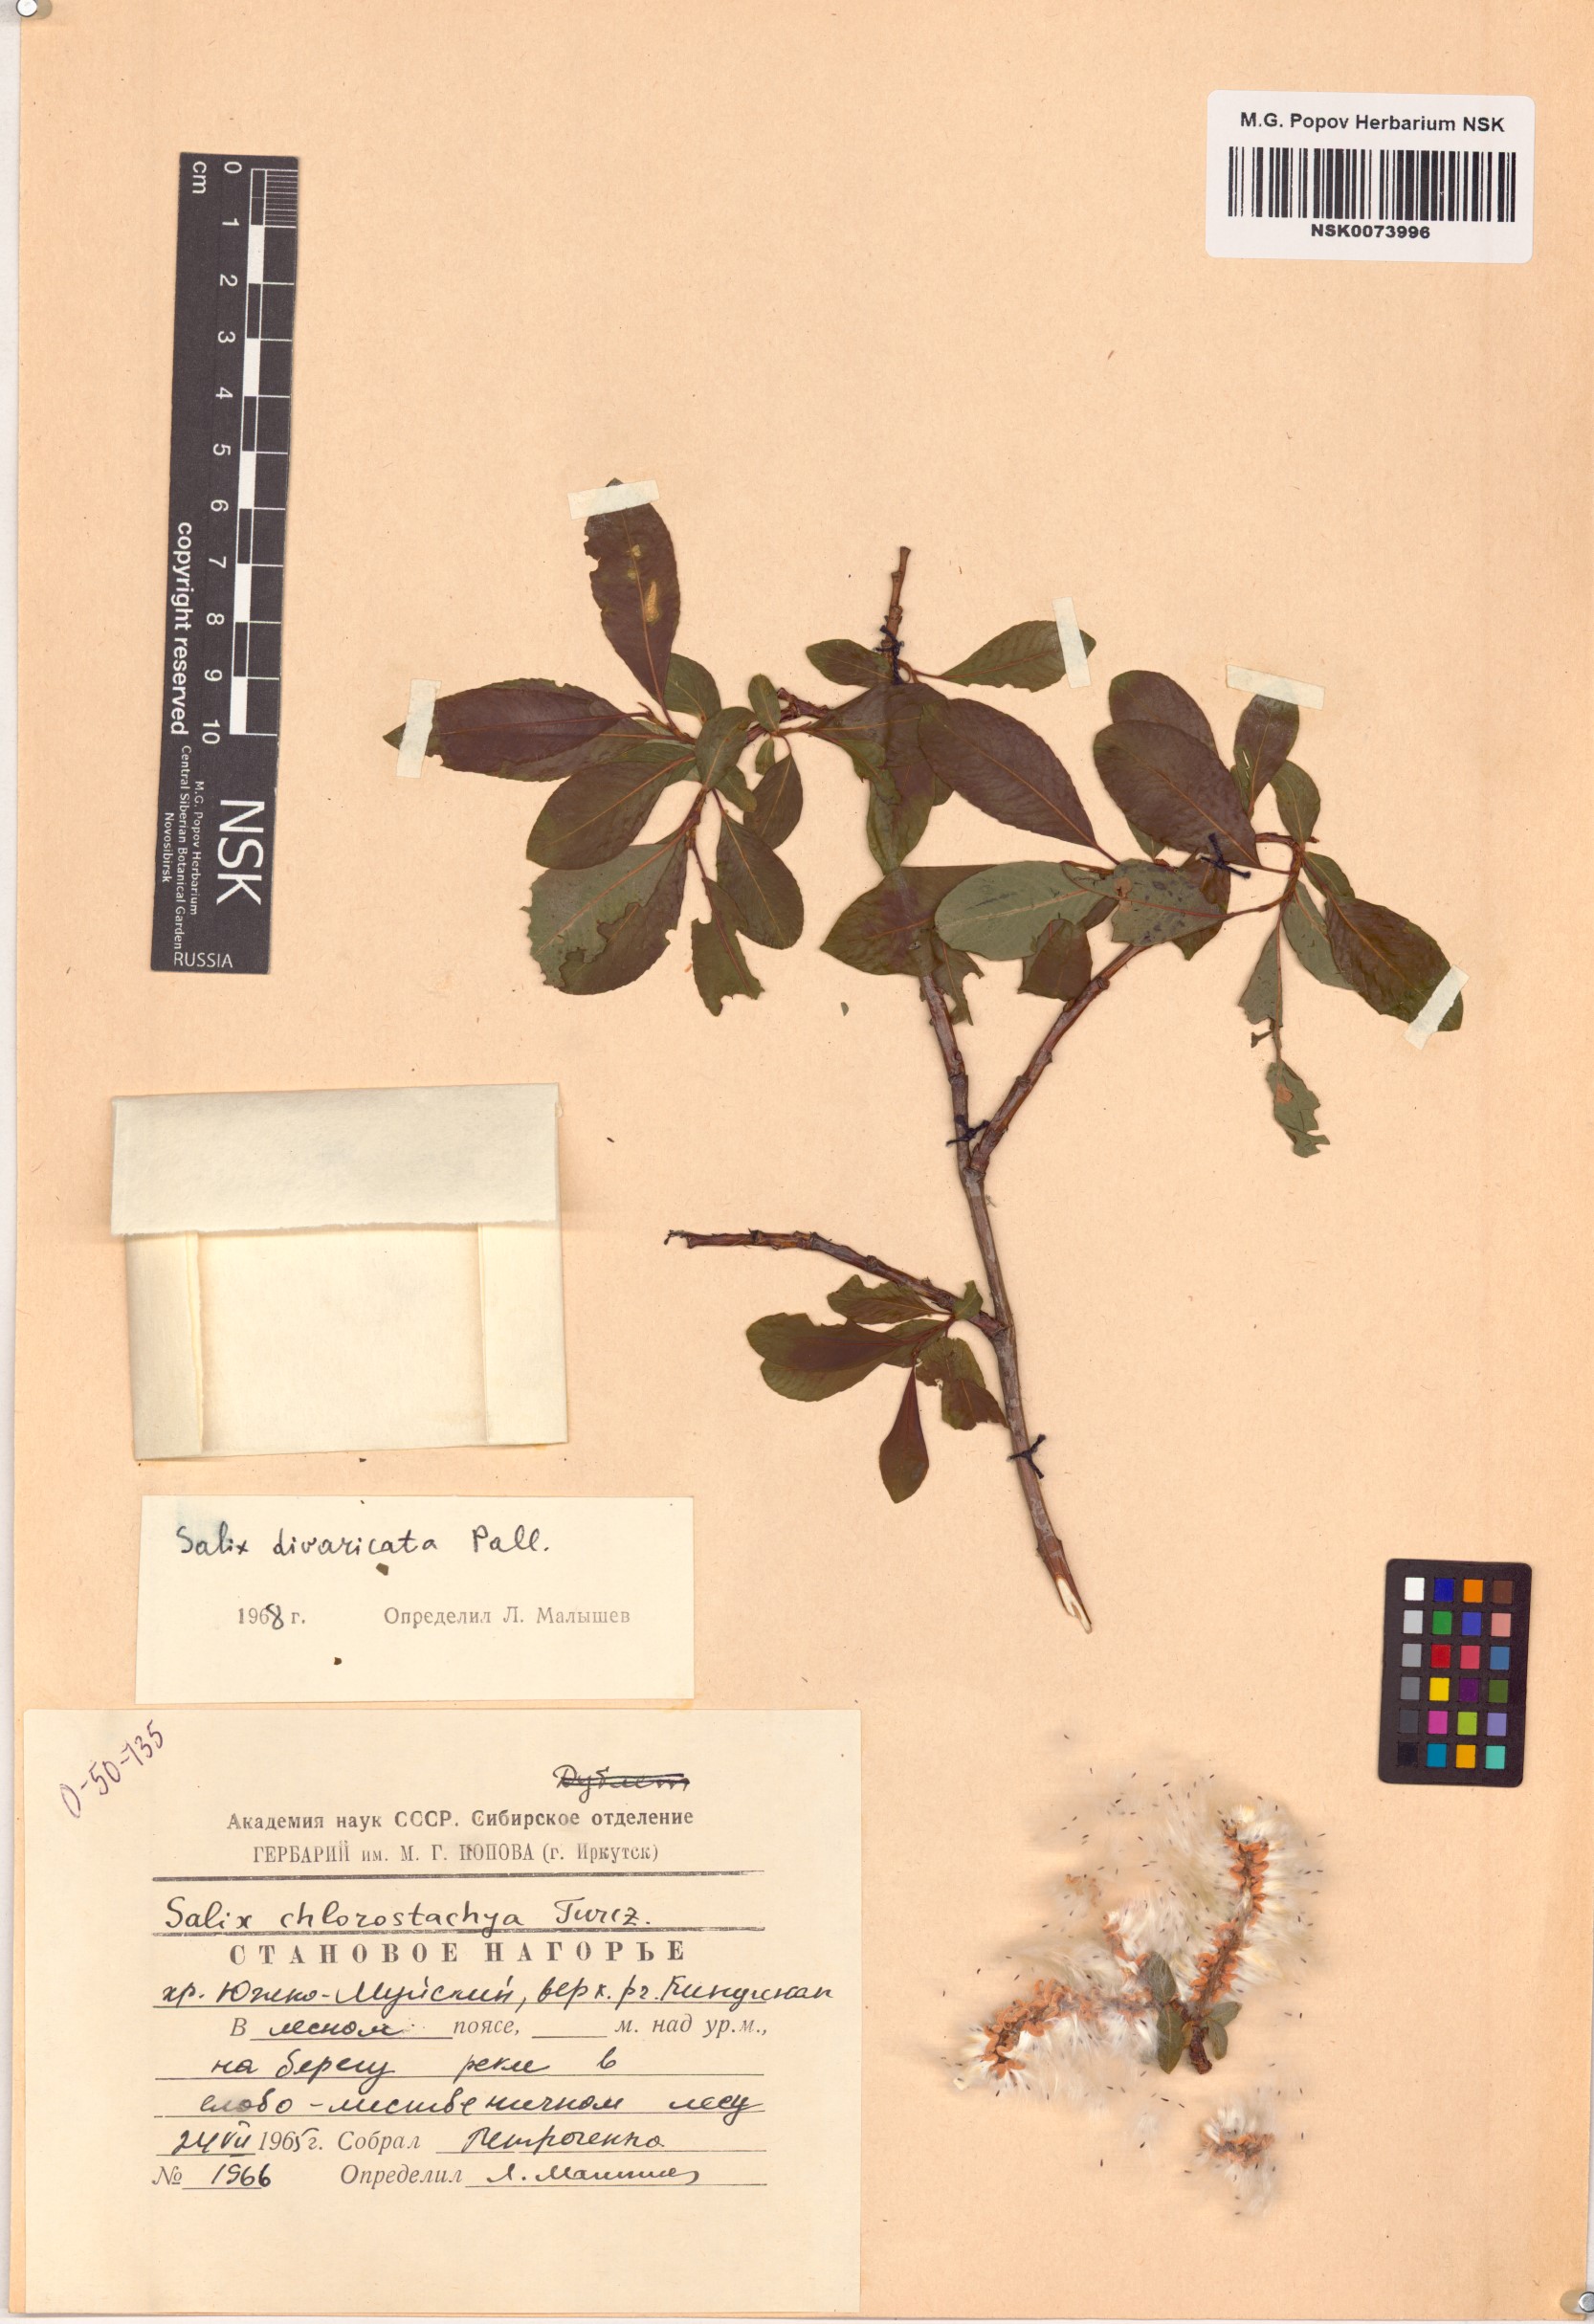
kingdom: Plantae
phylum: Tracheophyta
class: Magnoliopsida
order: Malpighiales
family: Salicaceae
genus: Salix
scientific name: Salix divaricata
